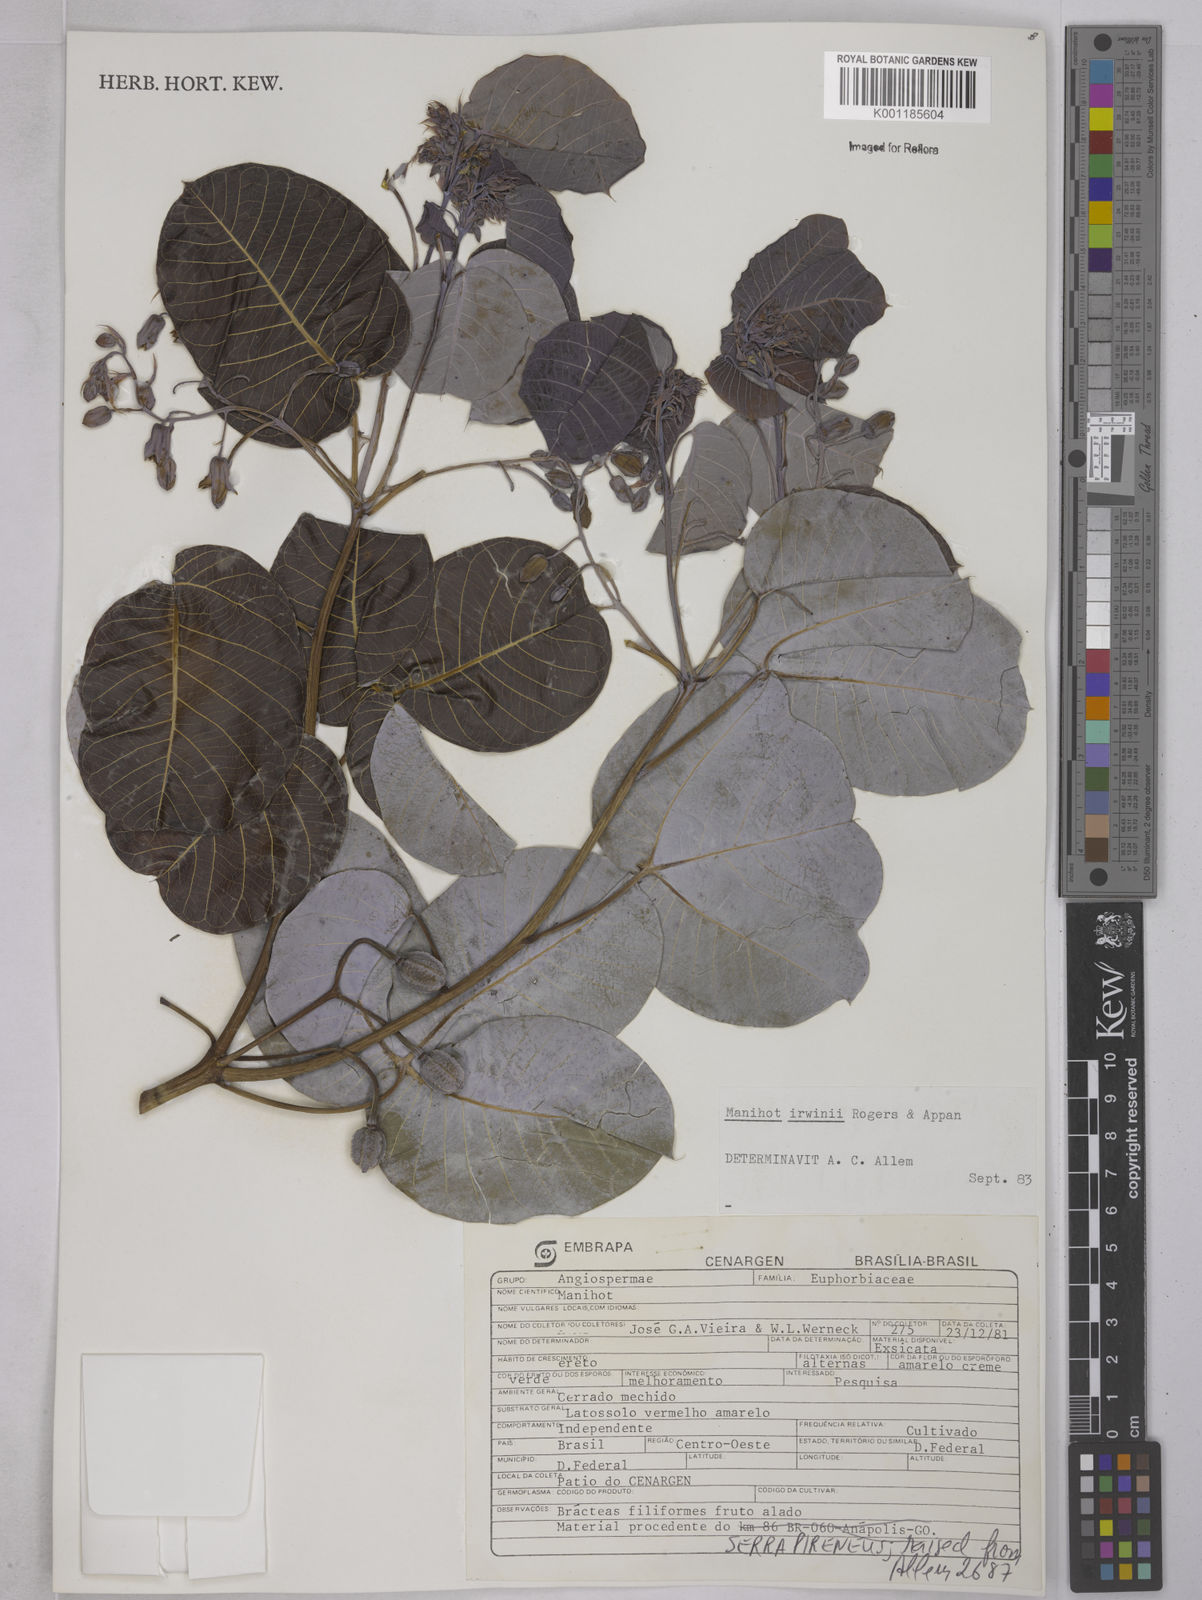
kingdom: Plantae
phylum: Tracheophyta
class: Magnoliopsida
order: Malpighiales
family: Euphorbiaceae
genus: Manihot
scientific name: Manihot irwinii
